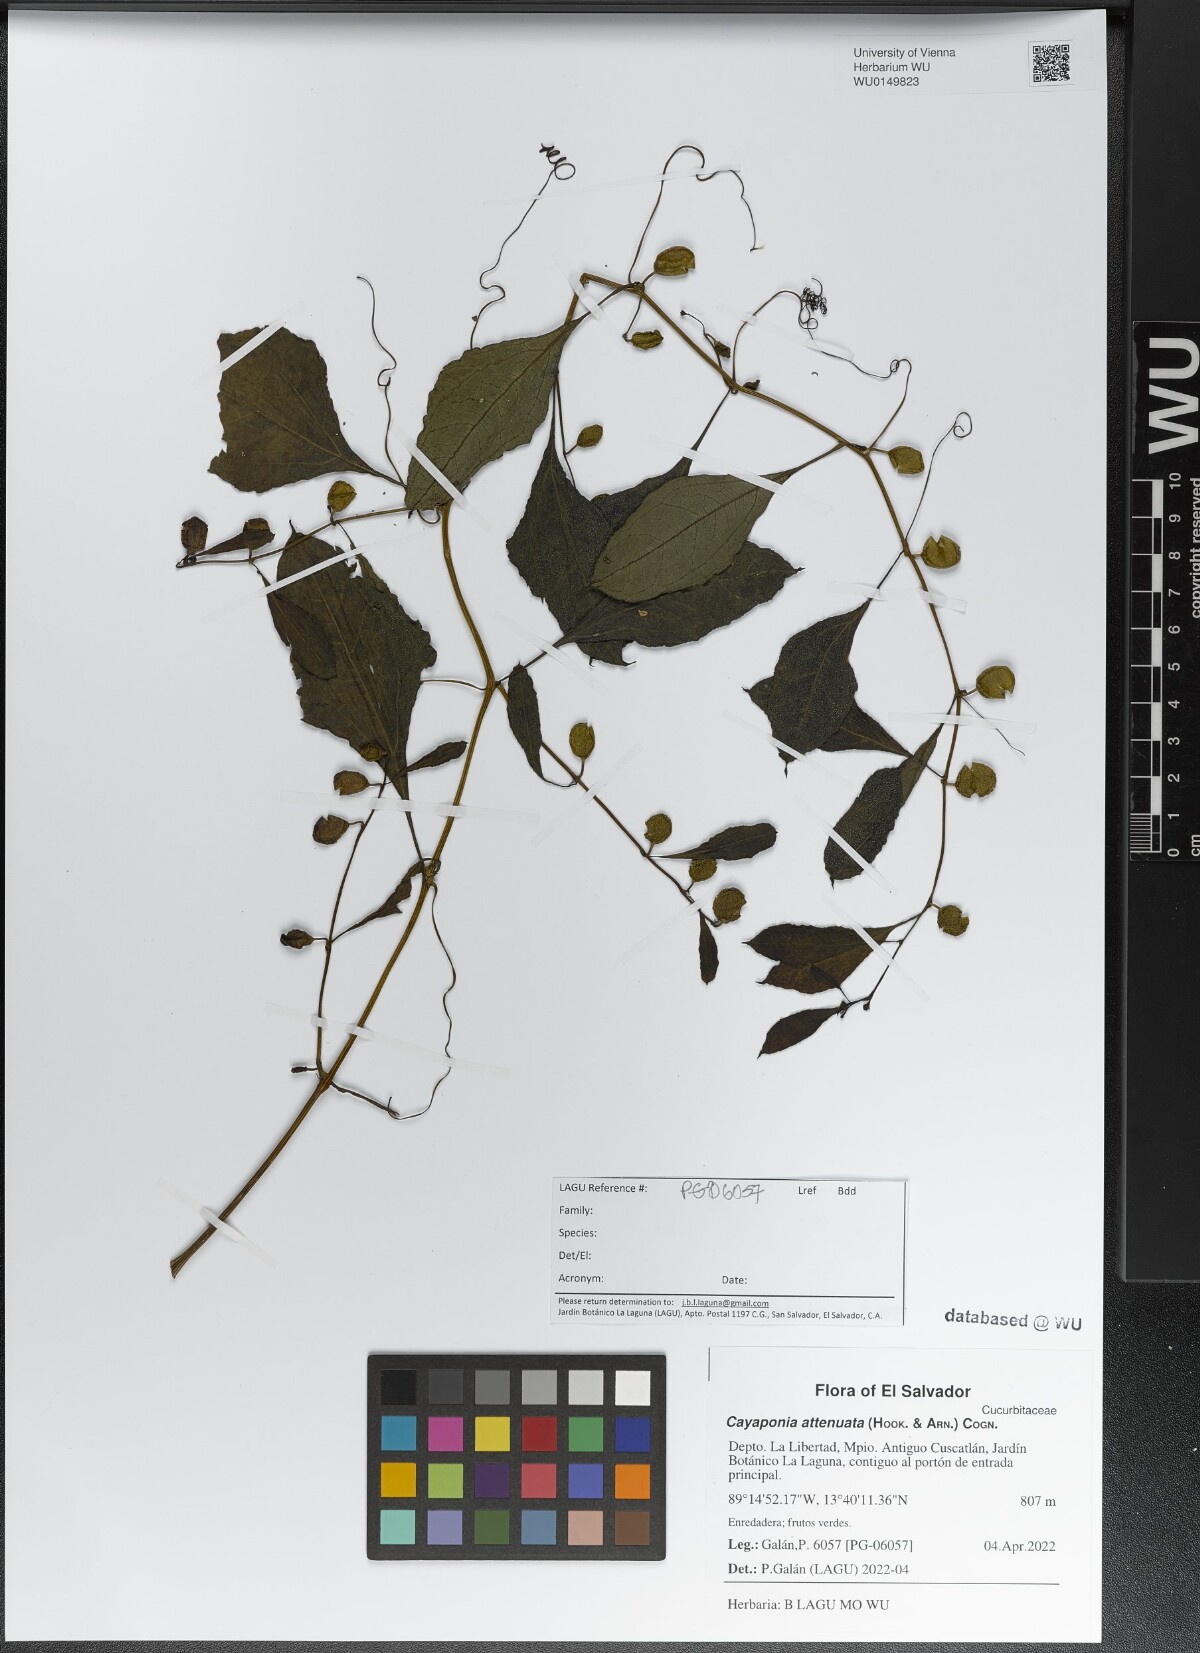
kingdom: Plantae
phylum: Tracheophyta
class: Magnoliopsida
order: Cucurbitales
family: Cucurbitaceae
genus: Cayaponia
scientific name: Cayaponia attenuata
